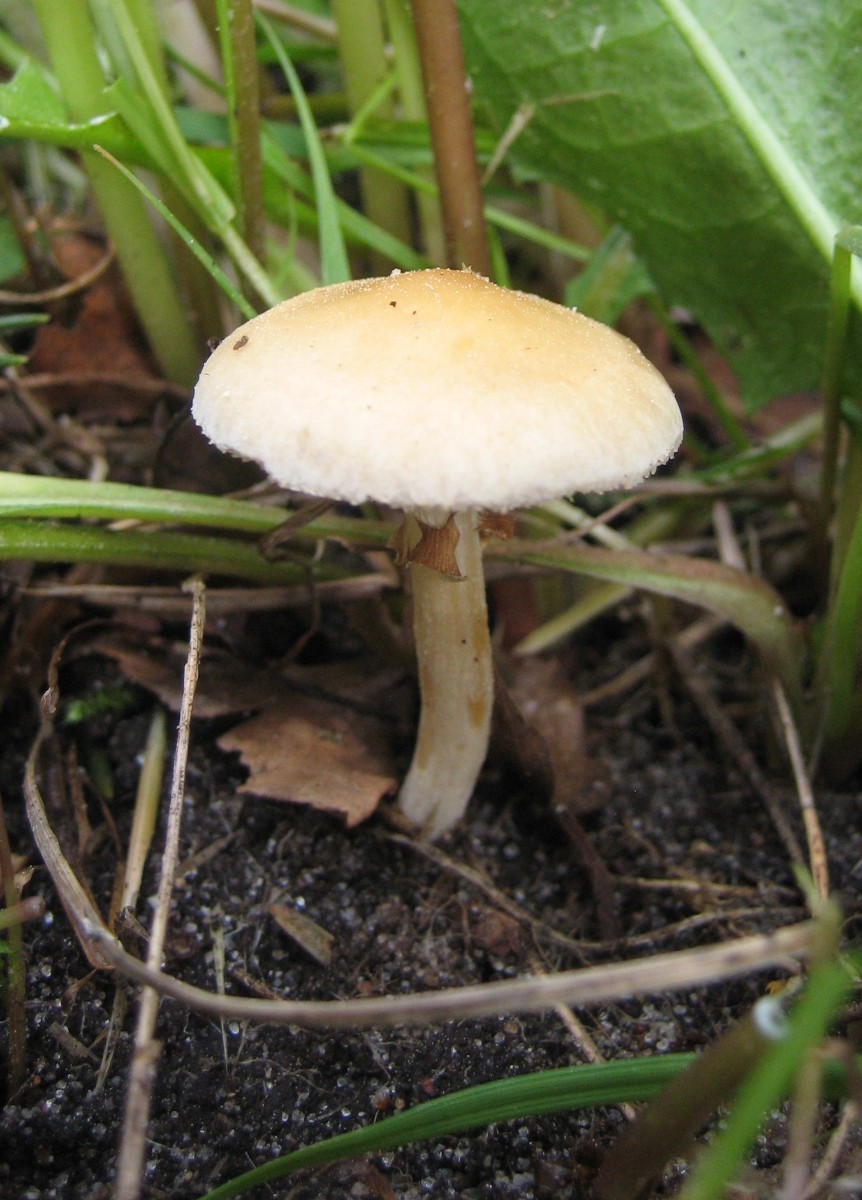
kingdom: Fungi
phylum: Basidiomycota
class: Agaricomycetes
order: Agaricales
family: Strophariaceae
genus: Agrocybe
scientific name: Agrocybe praecox
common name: tidlig agerhat
